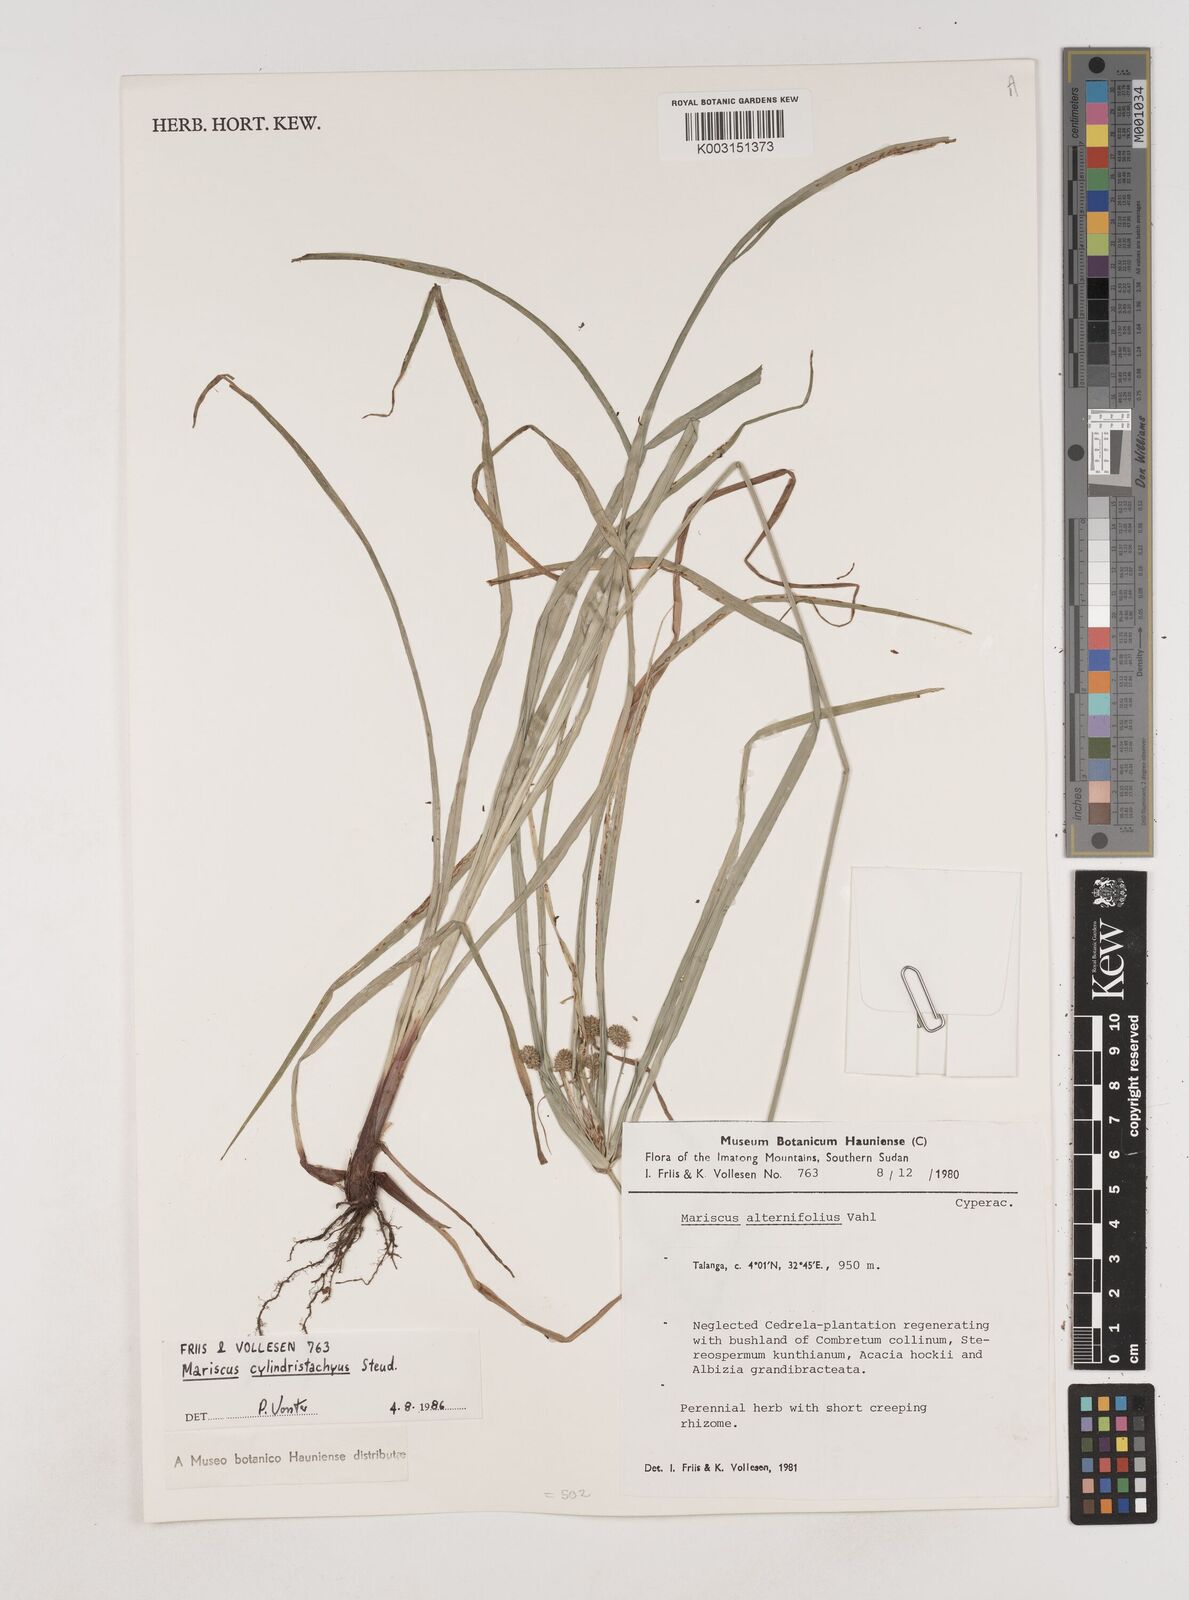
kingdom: Plantae
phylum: Tracheophyta
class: Liliopsida
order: Poales
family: Cyperaceae
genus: Cyperus
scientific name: Cyperus cyperoides
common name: Pacific island flat sedge
